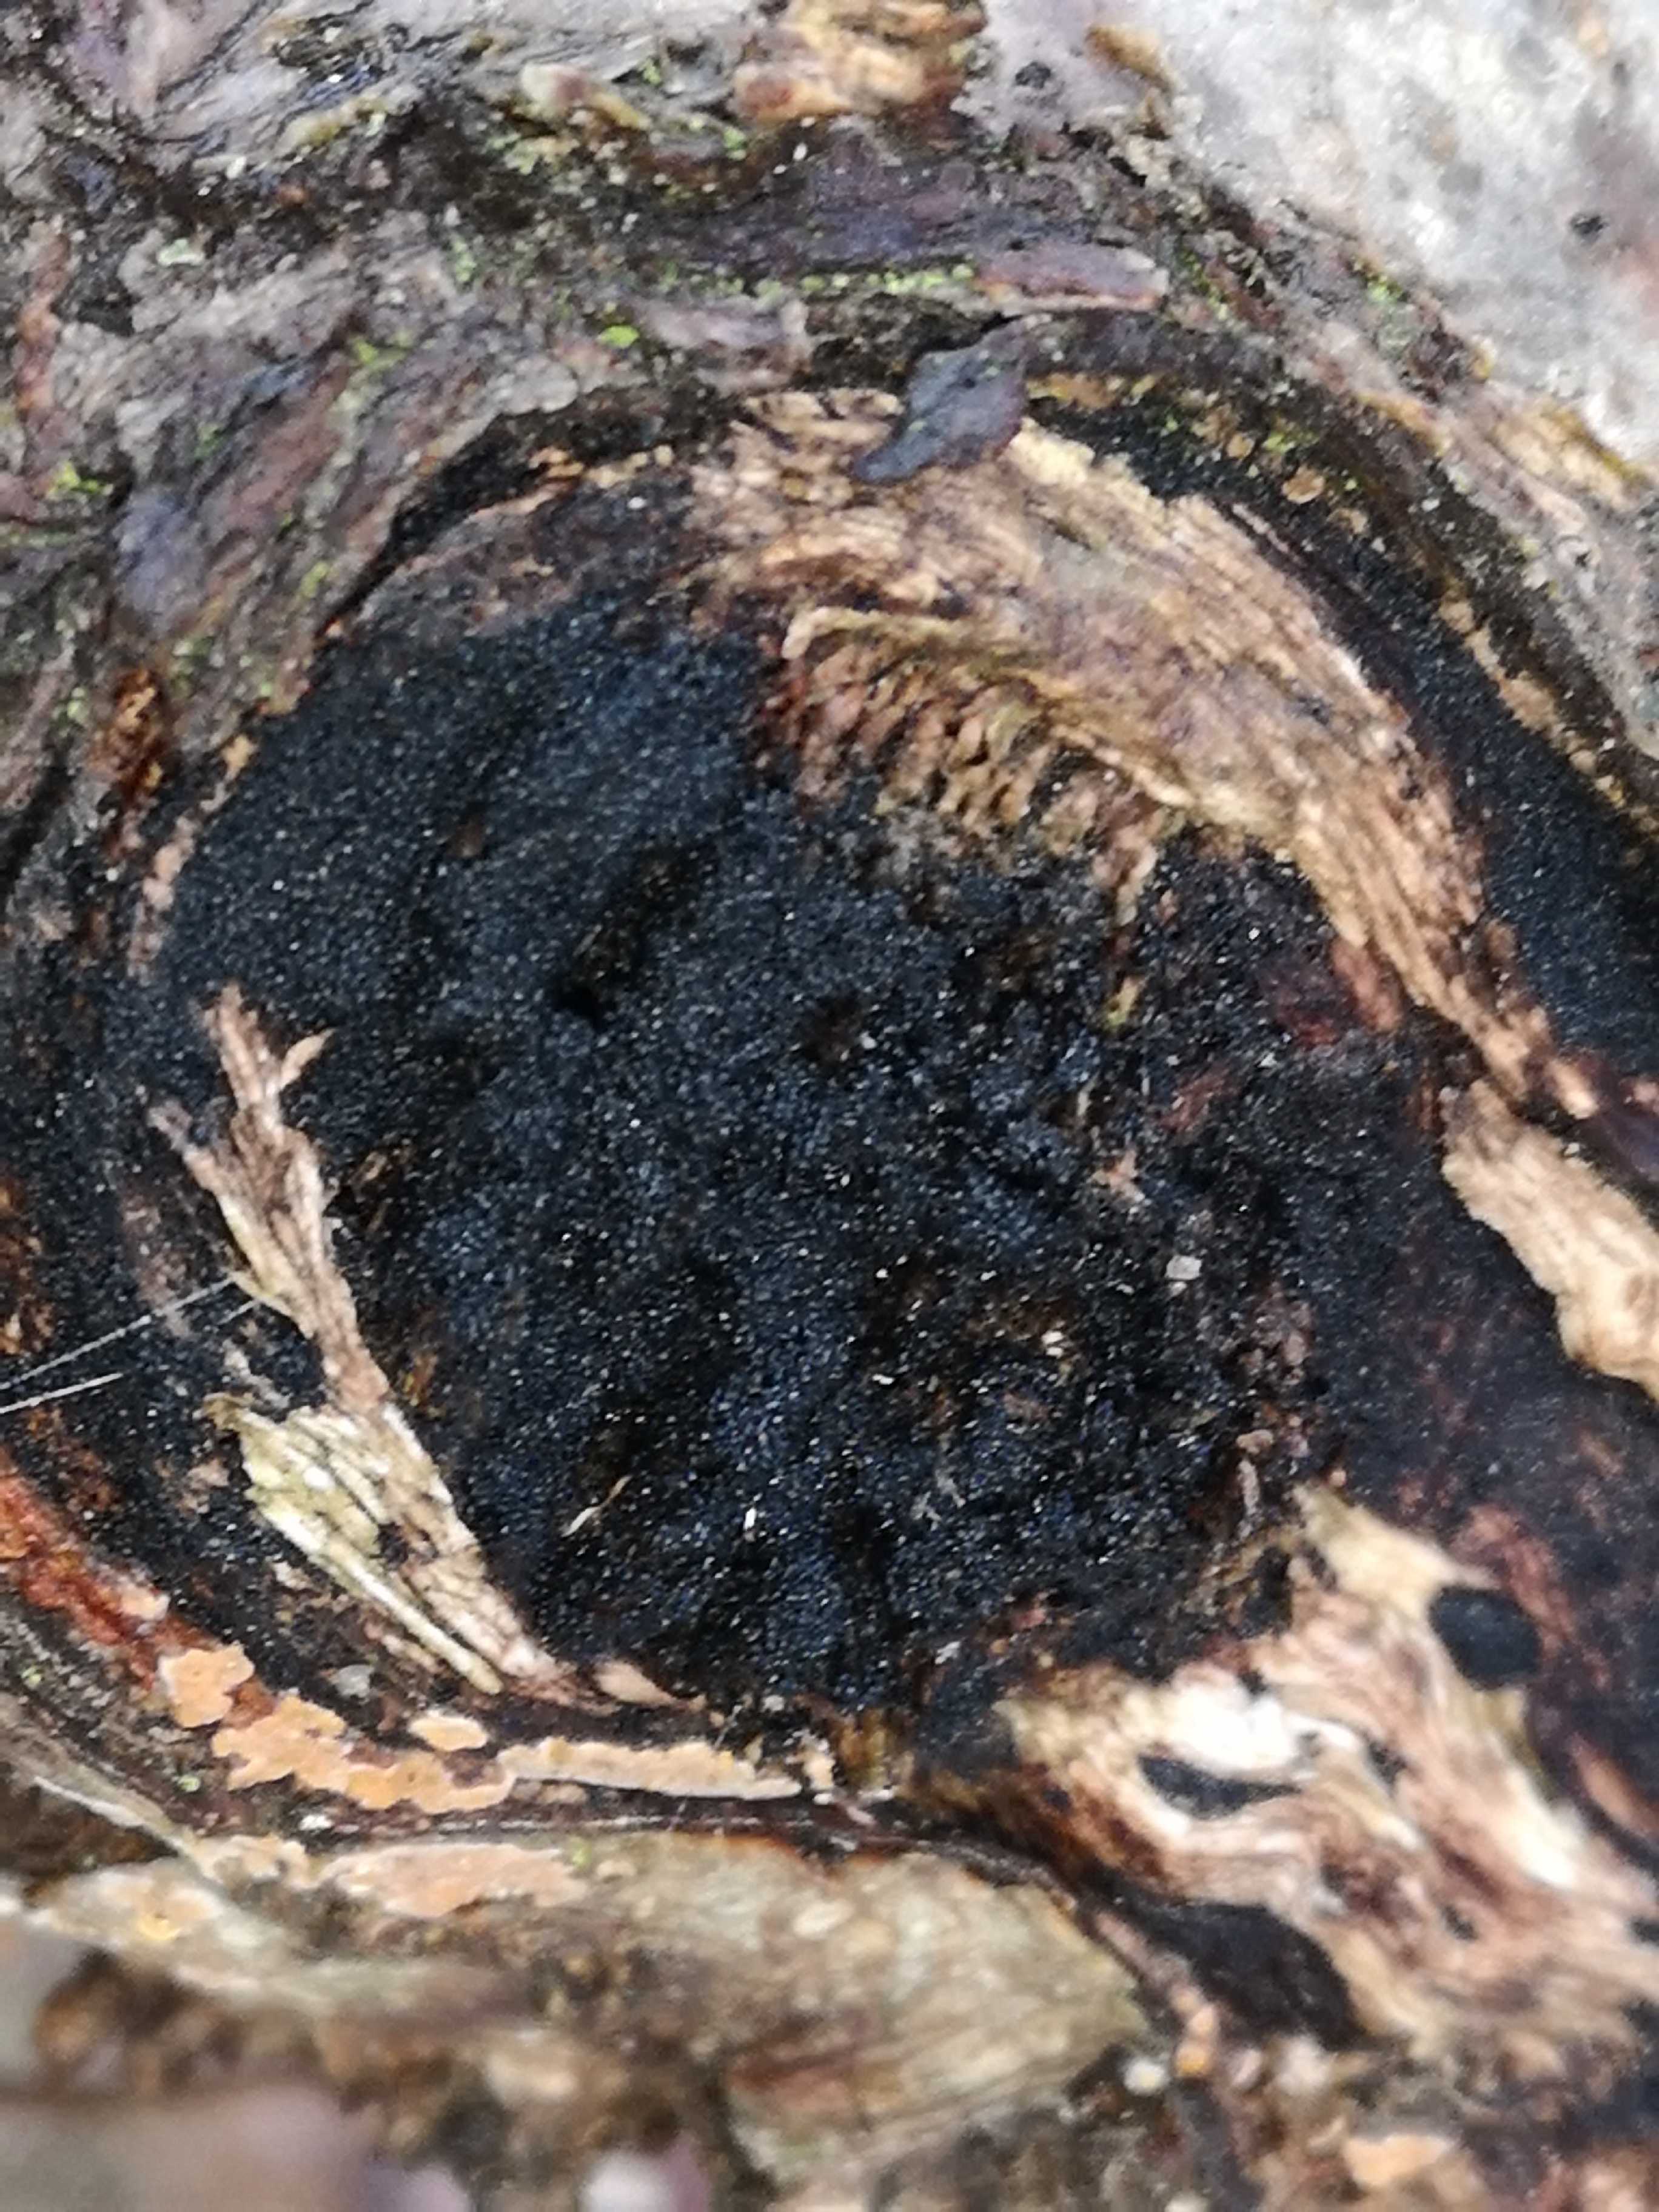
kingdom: Fungi
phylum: Ascomycota
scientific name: Ascomycota
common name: sæksvampe
